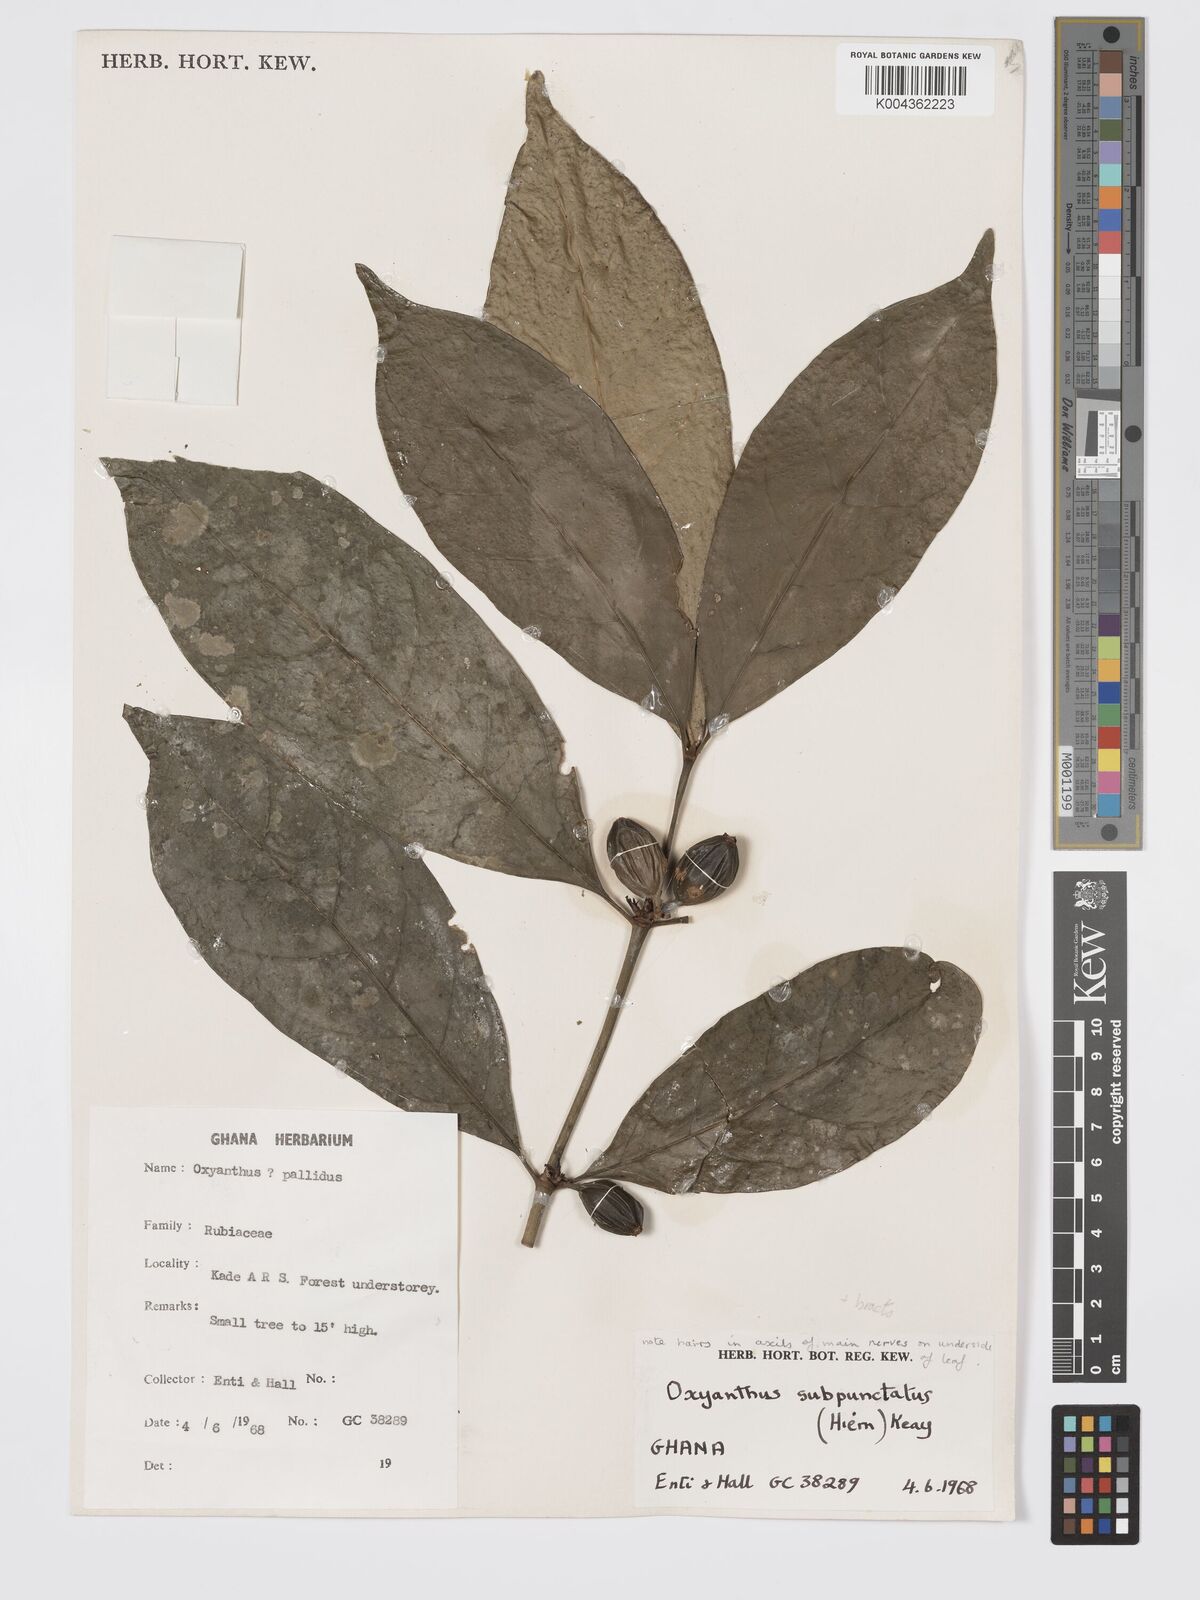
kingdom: Plantae
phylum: Tracheophyta
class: Magnoliopsida
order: Gentianales
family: Rubiaceae
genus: Oxyanthus
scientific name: Oxyanthus subpunctatus
